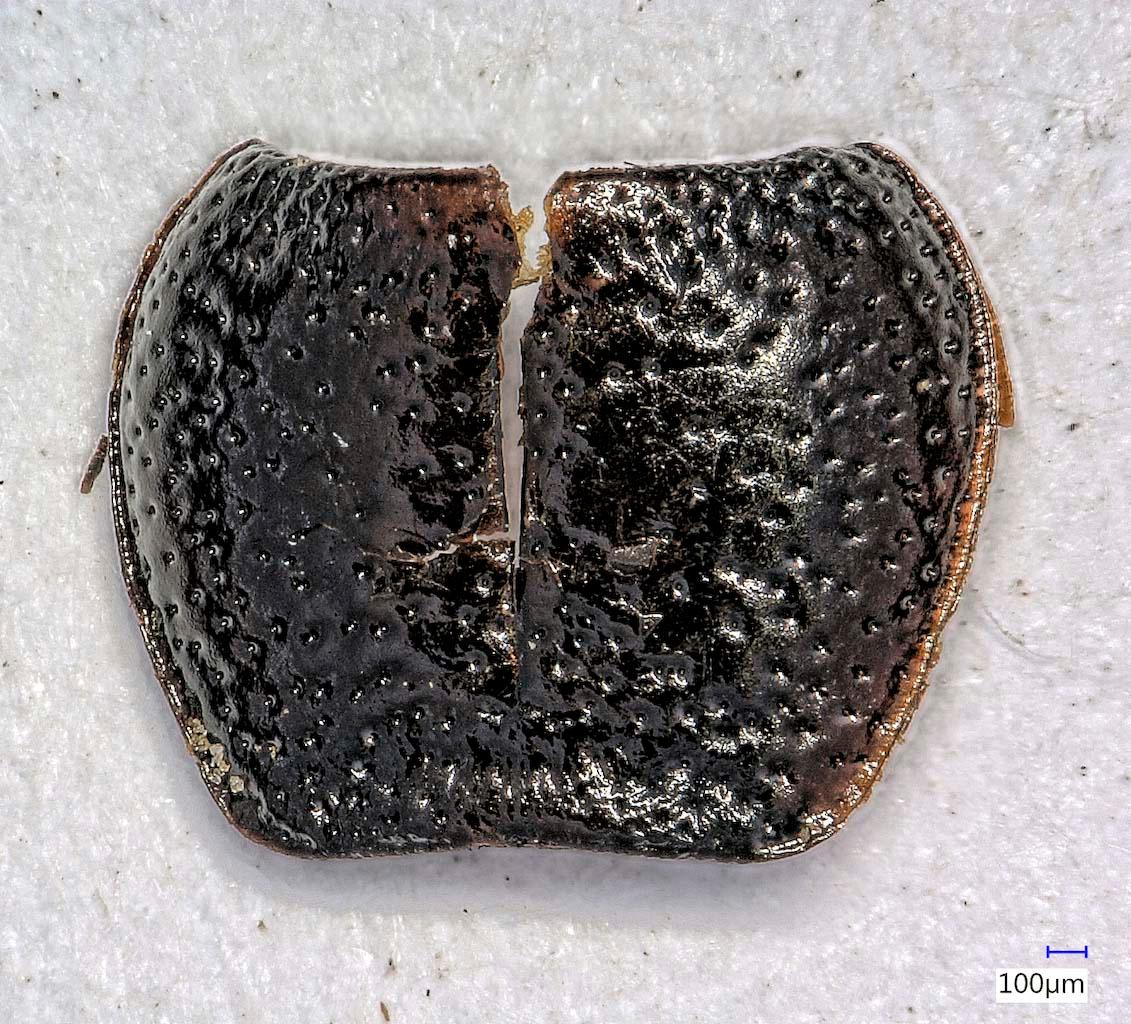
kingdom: Animalia
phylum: Arthropoda
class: Insecta
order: Coleoptera
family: Carabidae
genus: Dicheirus
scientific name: Dicheirus
